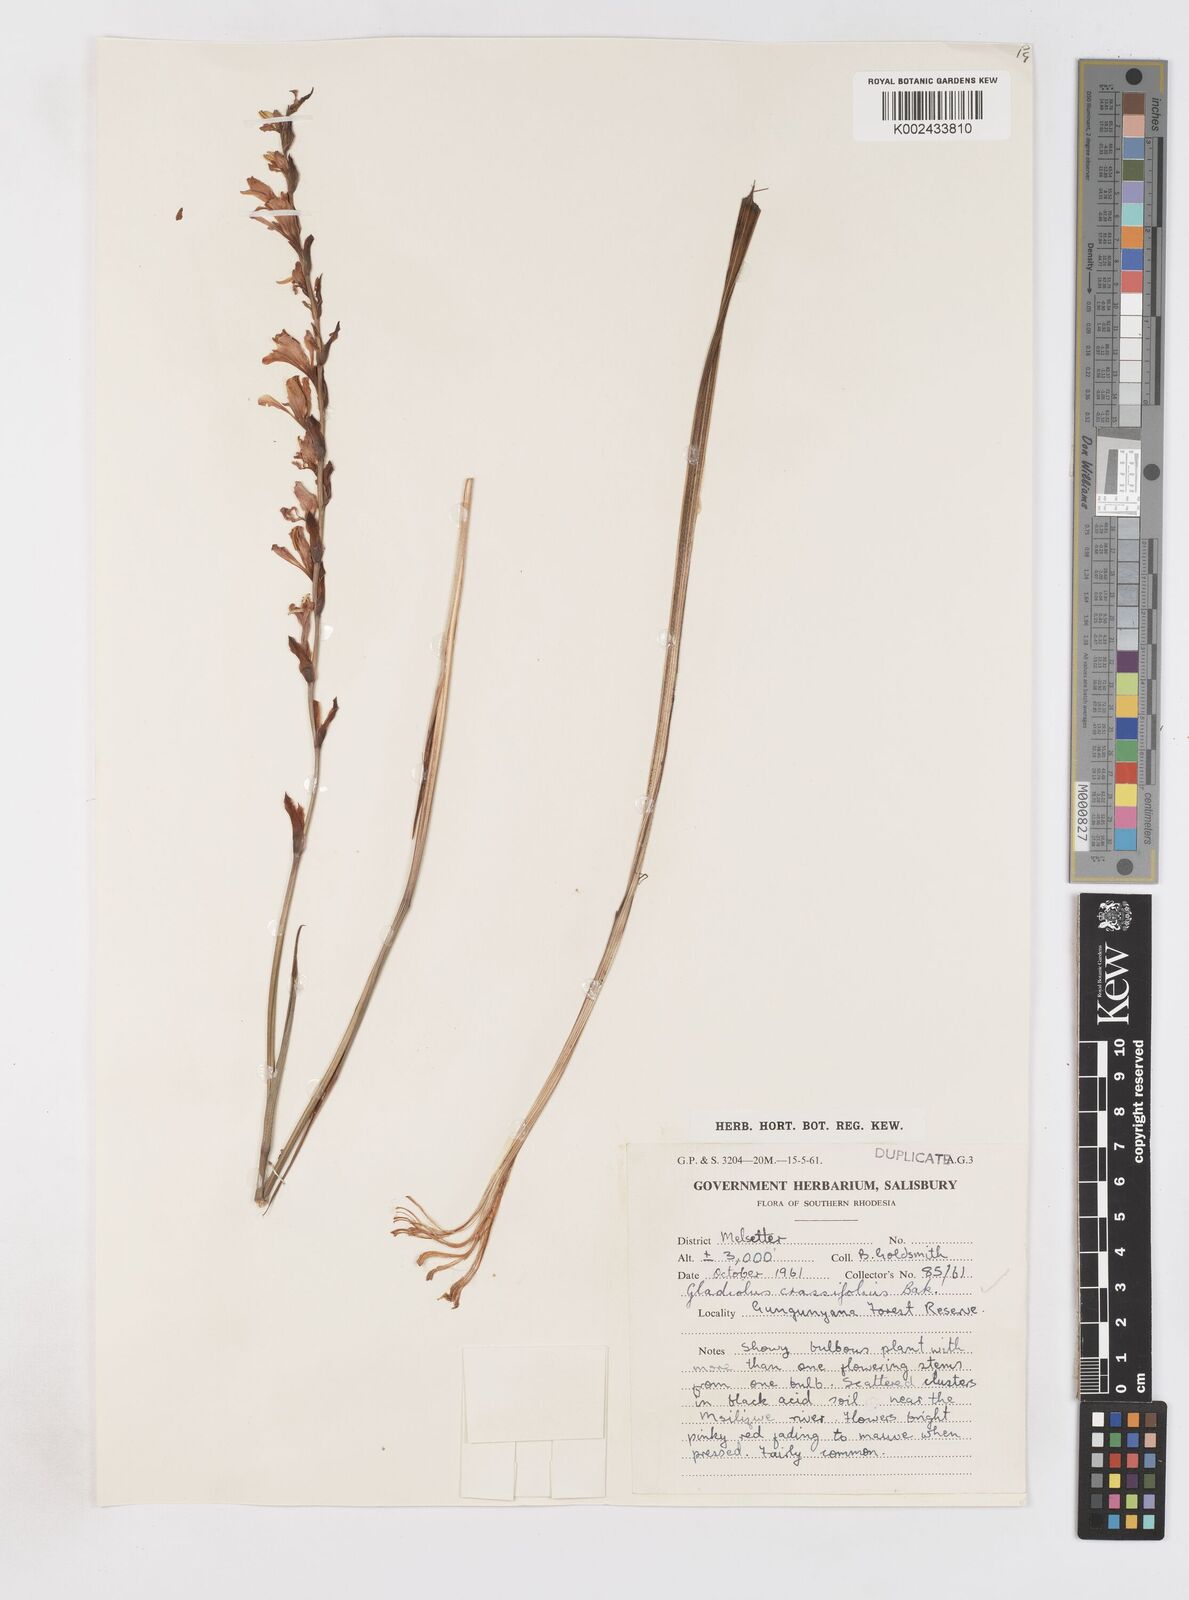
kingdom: Plantae
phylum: Tracheophyta
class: Liliopsida
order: Asparagales
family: Iridaceae
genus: Gladiolus
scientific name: Gladiolus crassifolius
